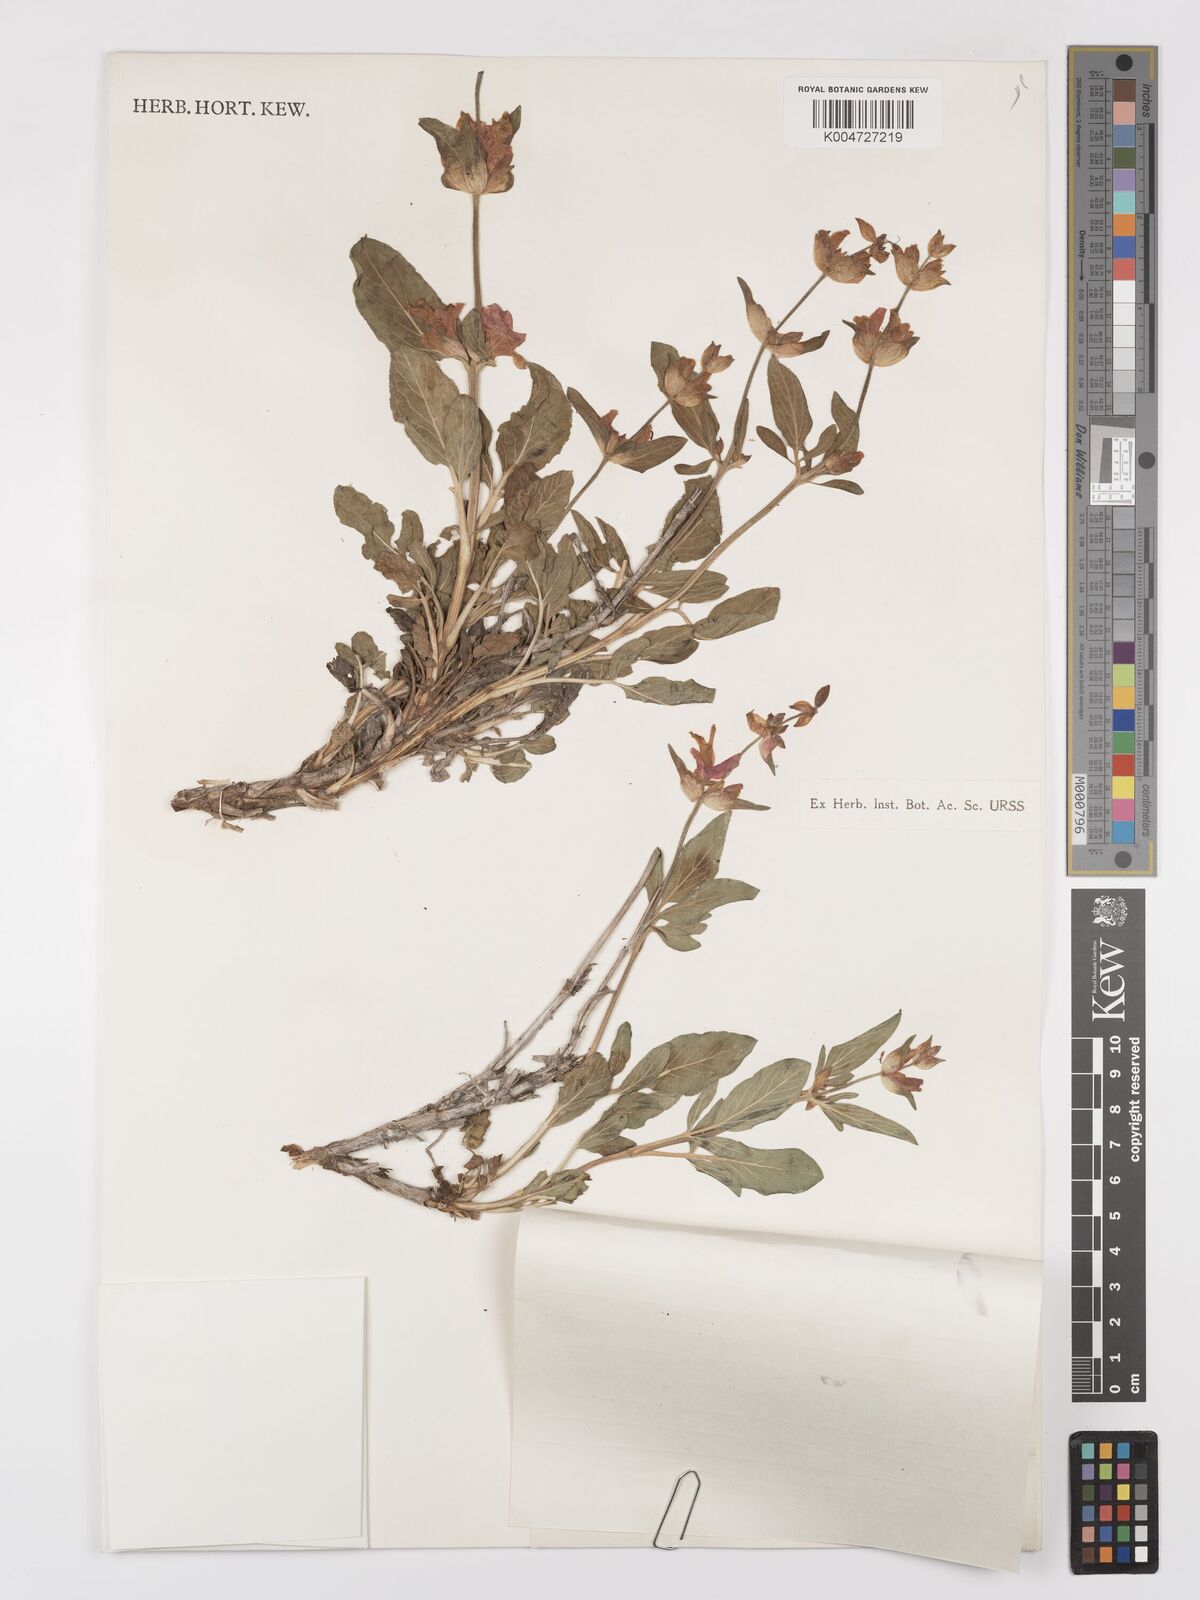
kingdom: Plantae
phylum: Tracheophyta
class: Magnoliopsida
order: Lamiales
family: Lamiaceae
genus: Salvia
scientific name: Salvia bucharica
